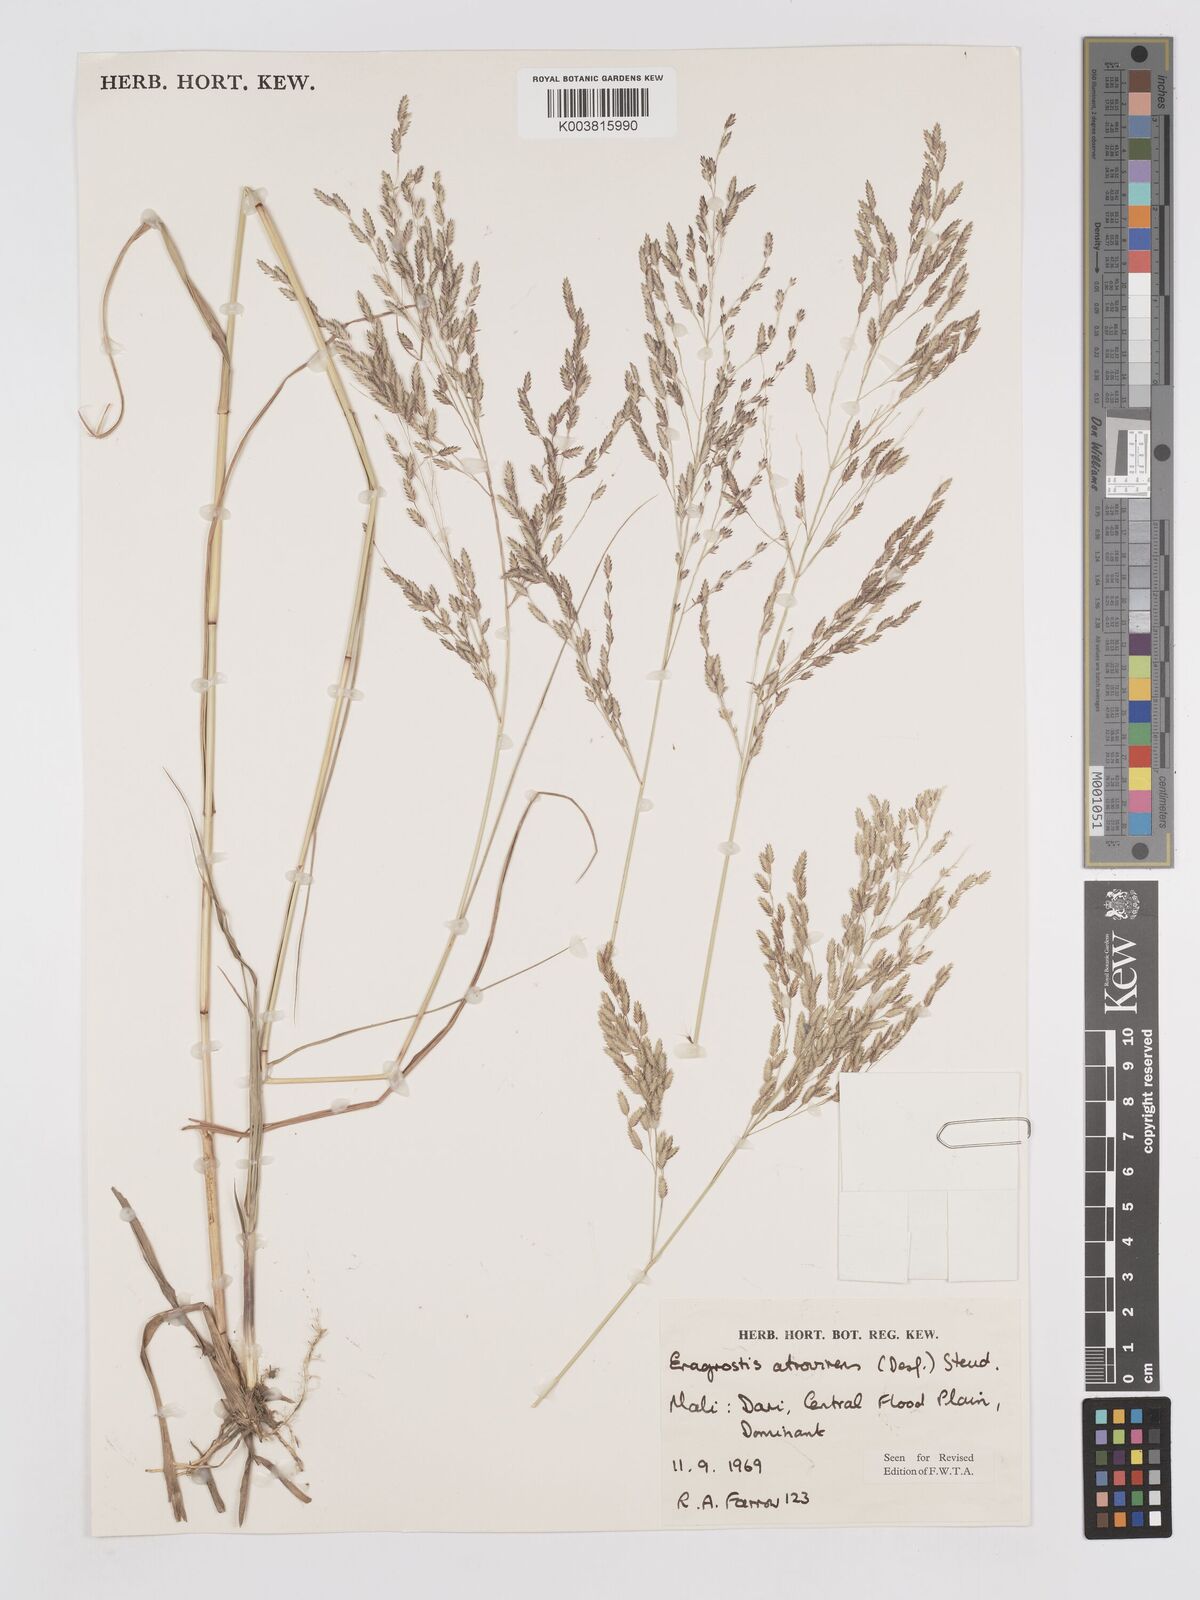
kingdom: Plantae
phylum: Tracheophyta
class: Liliopsida
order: Poales
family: Poaceae
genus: Eragrostis
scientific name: Eragrostis atrovirens
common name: Thalia lovegrass
